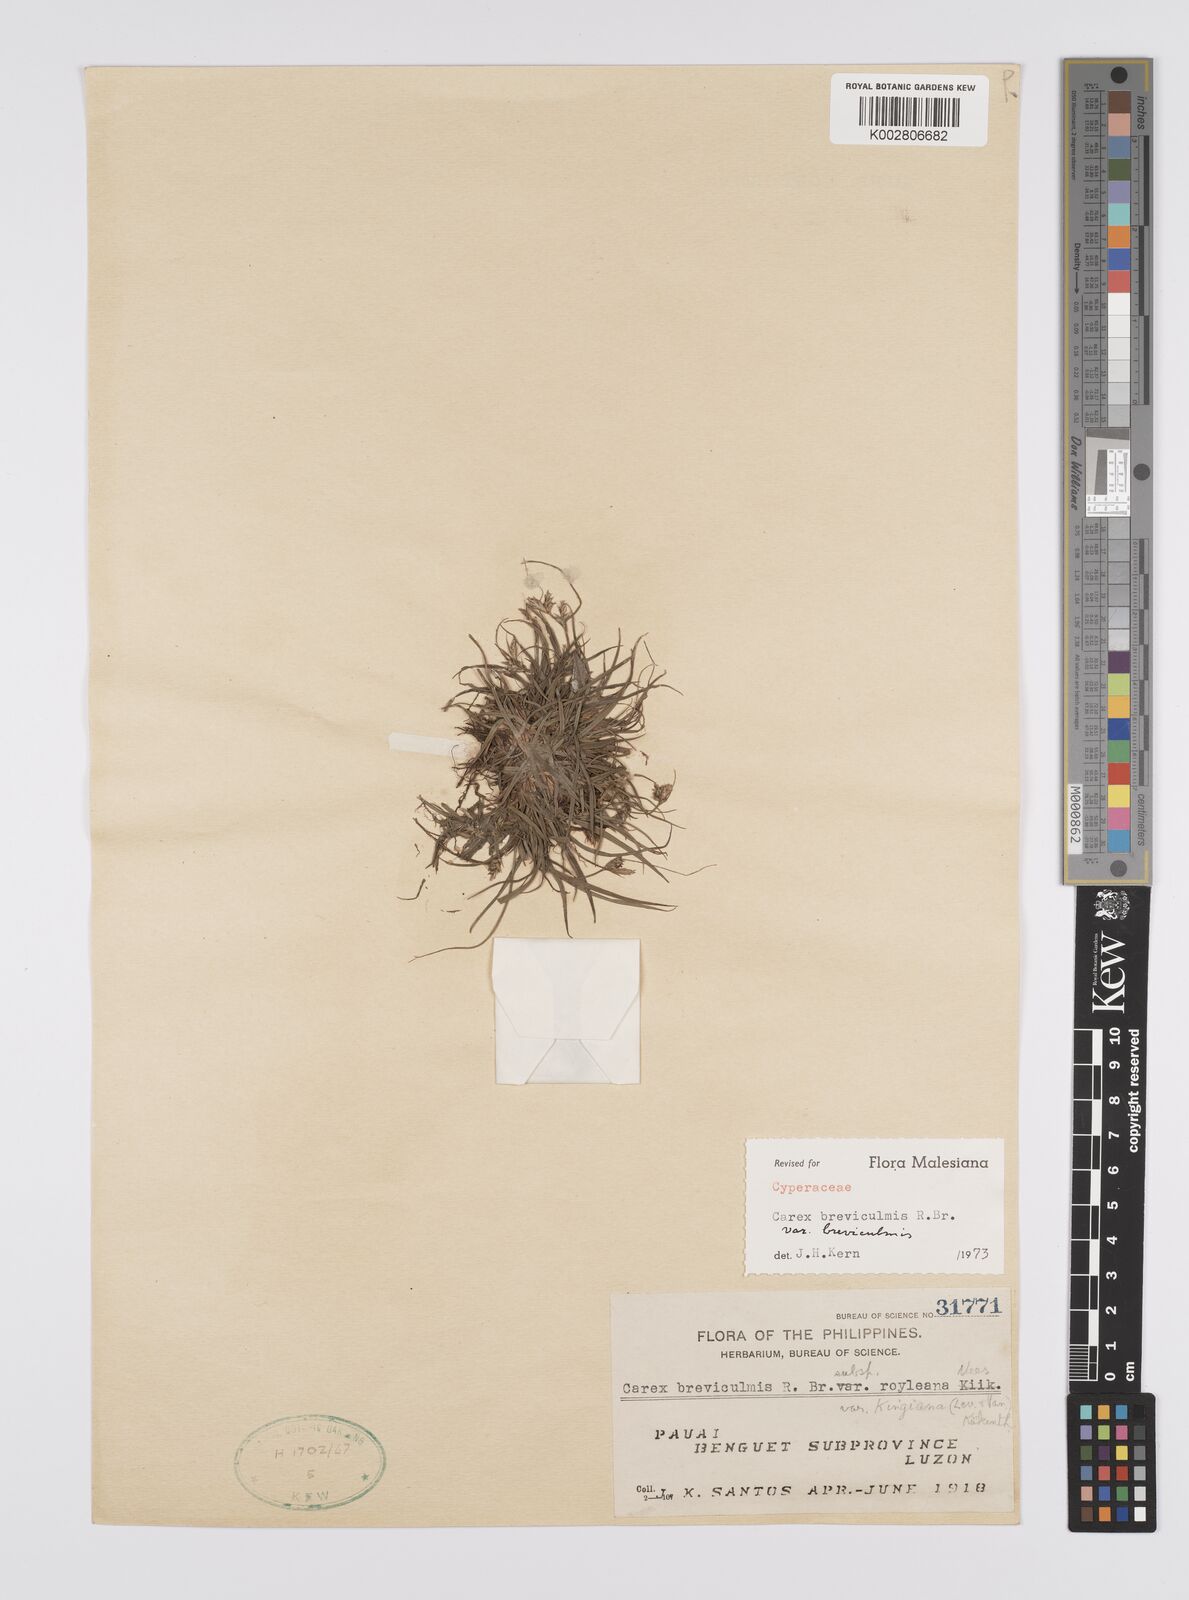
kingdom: Plantae
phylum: Tracheophyta
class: Liliopsida
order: Poales
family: Cyperaceae
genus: Carex
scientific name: Carex breviculmis
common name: Asian shortstem sedge
